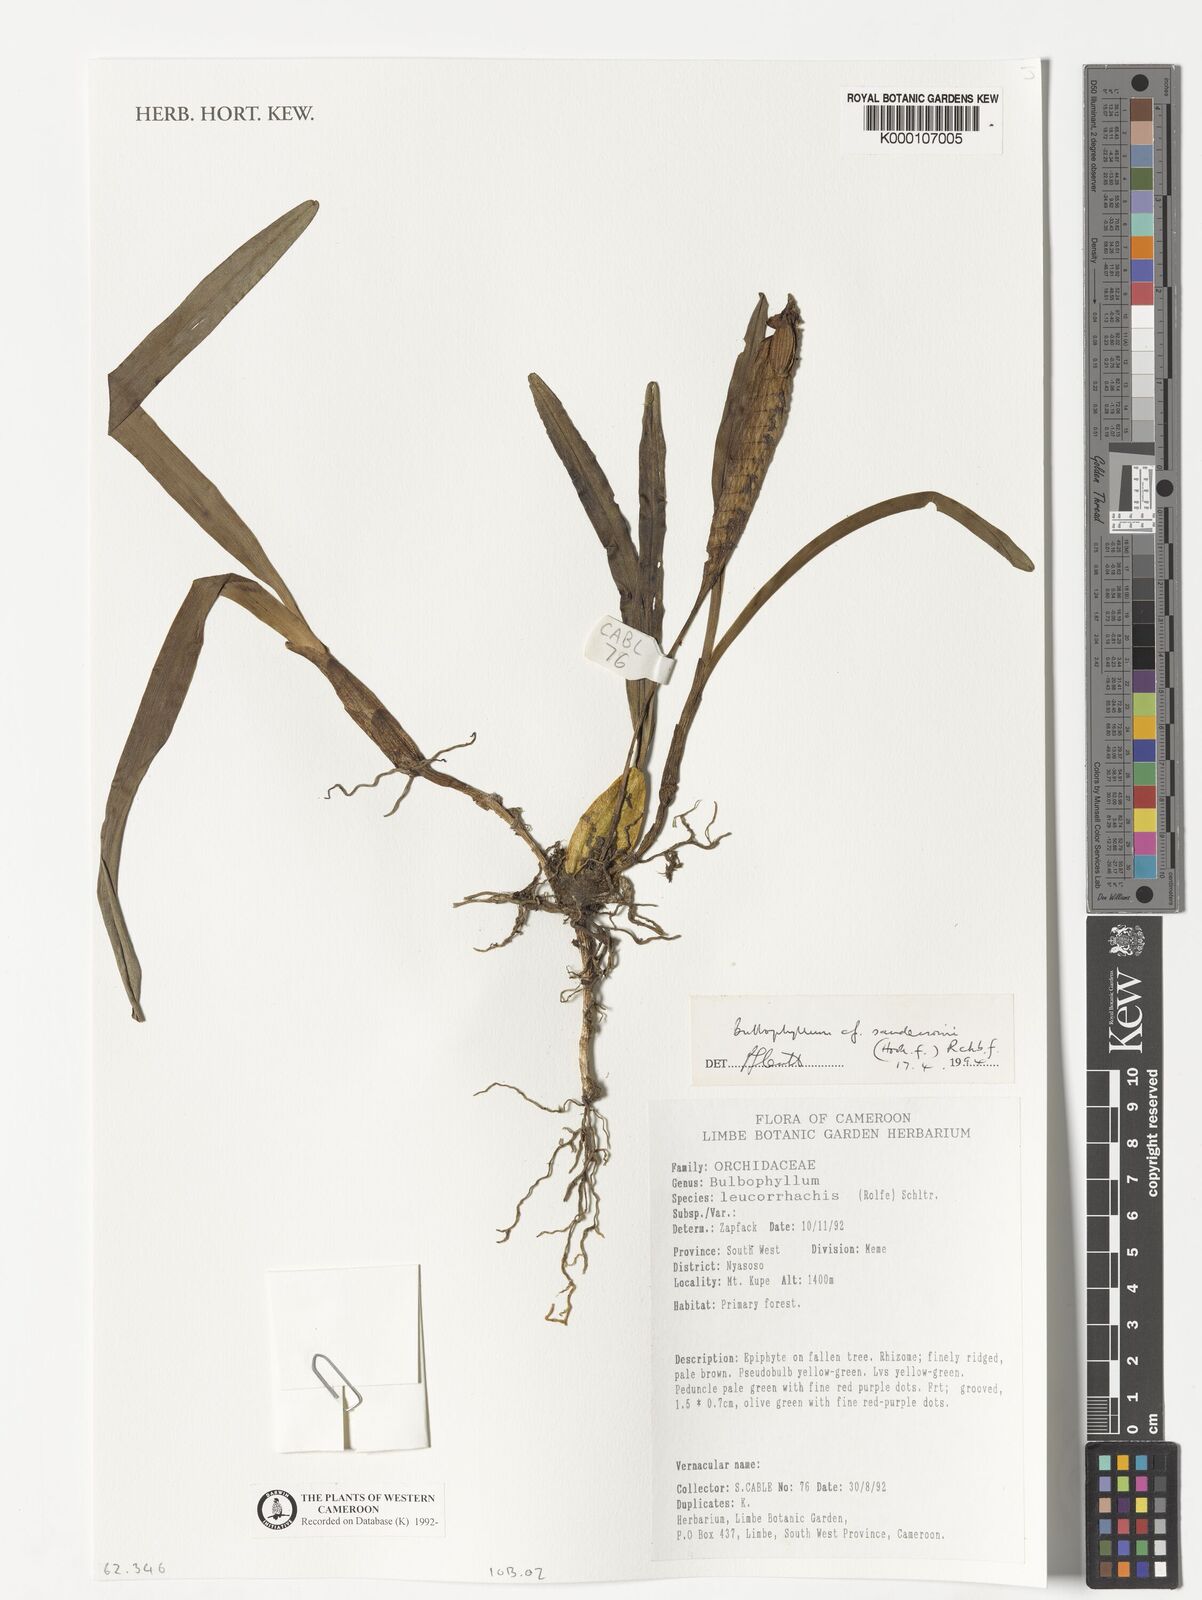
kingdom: Plantae
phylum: Tracheophyta
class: Liliopsida
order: Asparagales
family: Orchidaceae
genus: Bulbophyllum
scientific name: Bulbophyllum sandersonii
